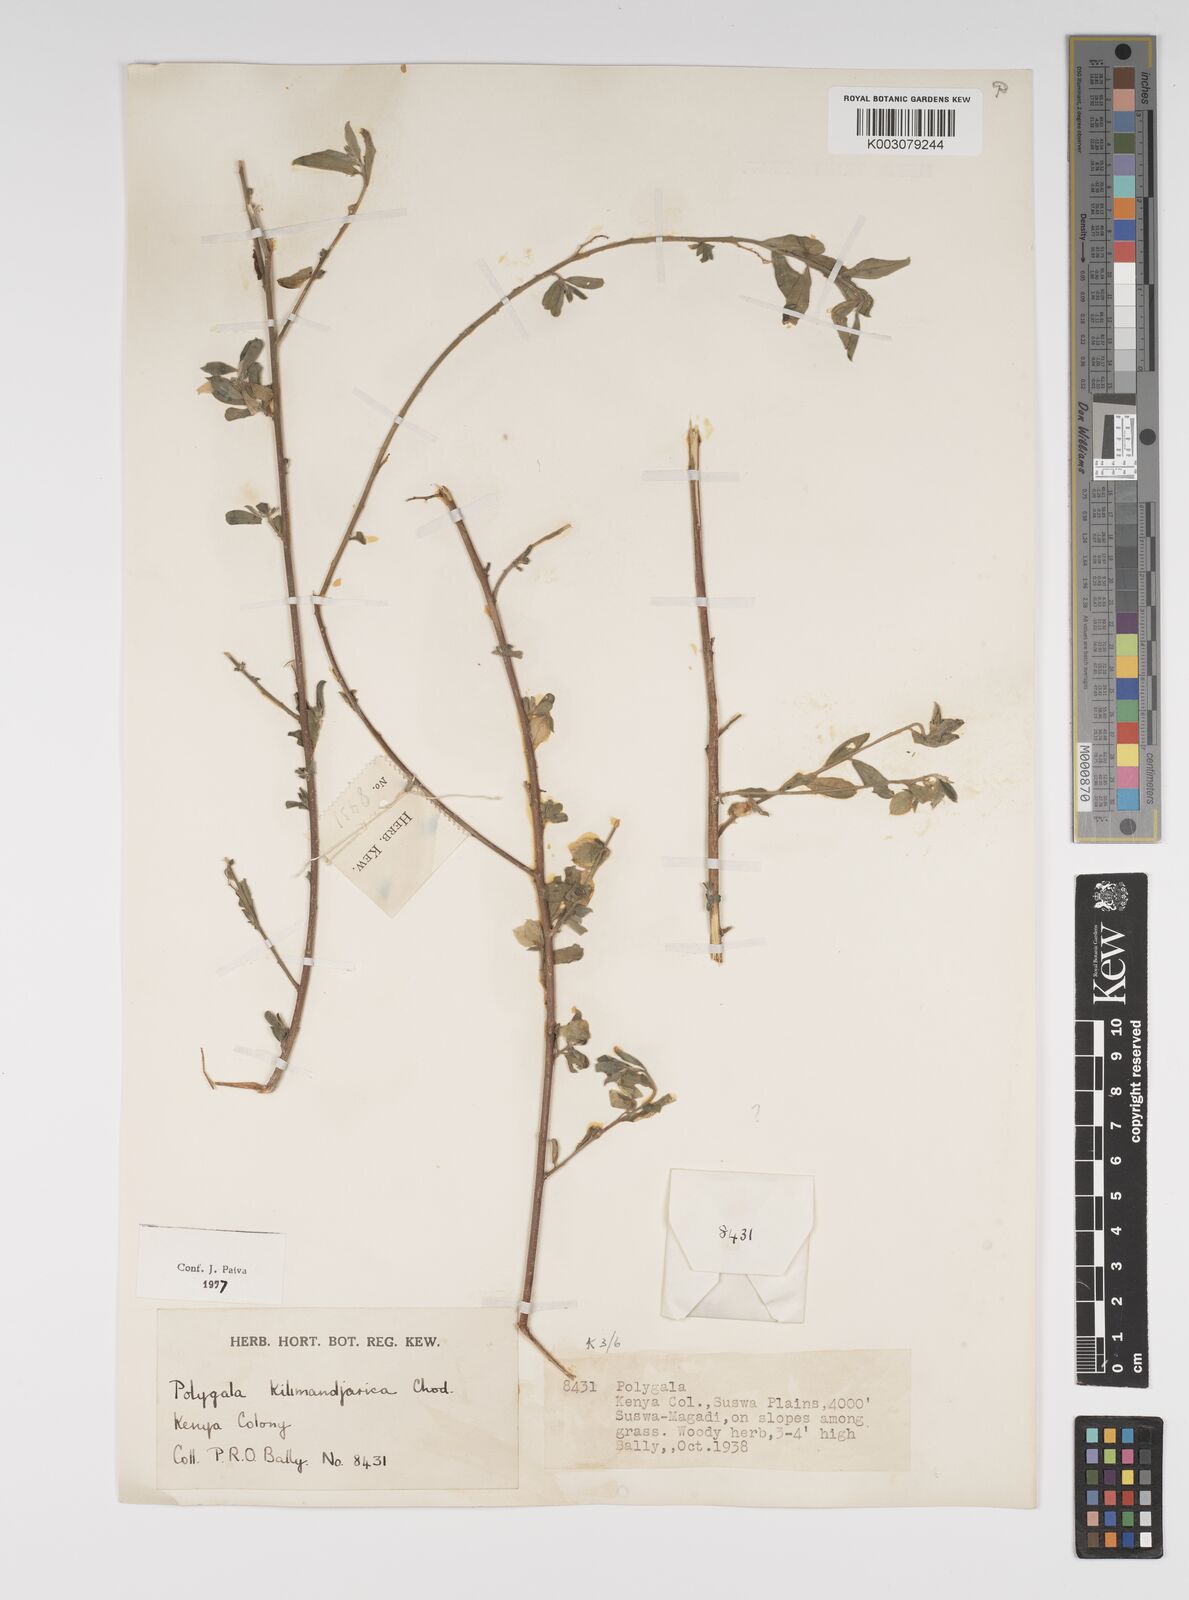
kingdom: Plantae
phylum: Tracheophyta
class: Magnoliopsida
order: Fabales
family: Polygalaceae
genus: Polygala
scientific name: Polygala kilimandjarica
